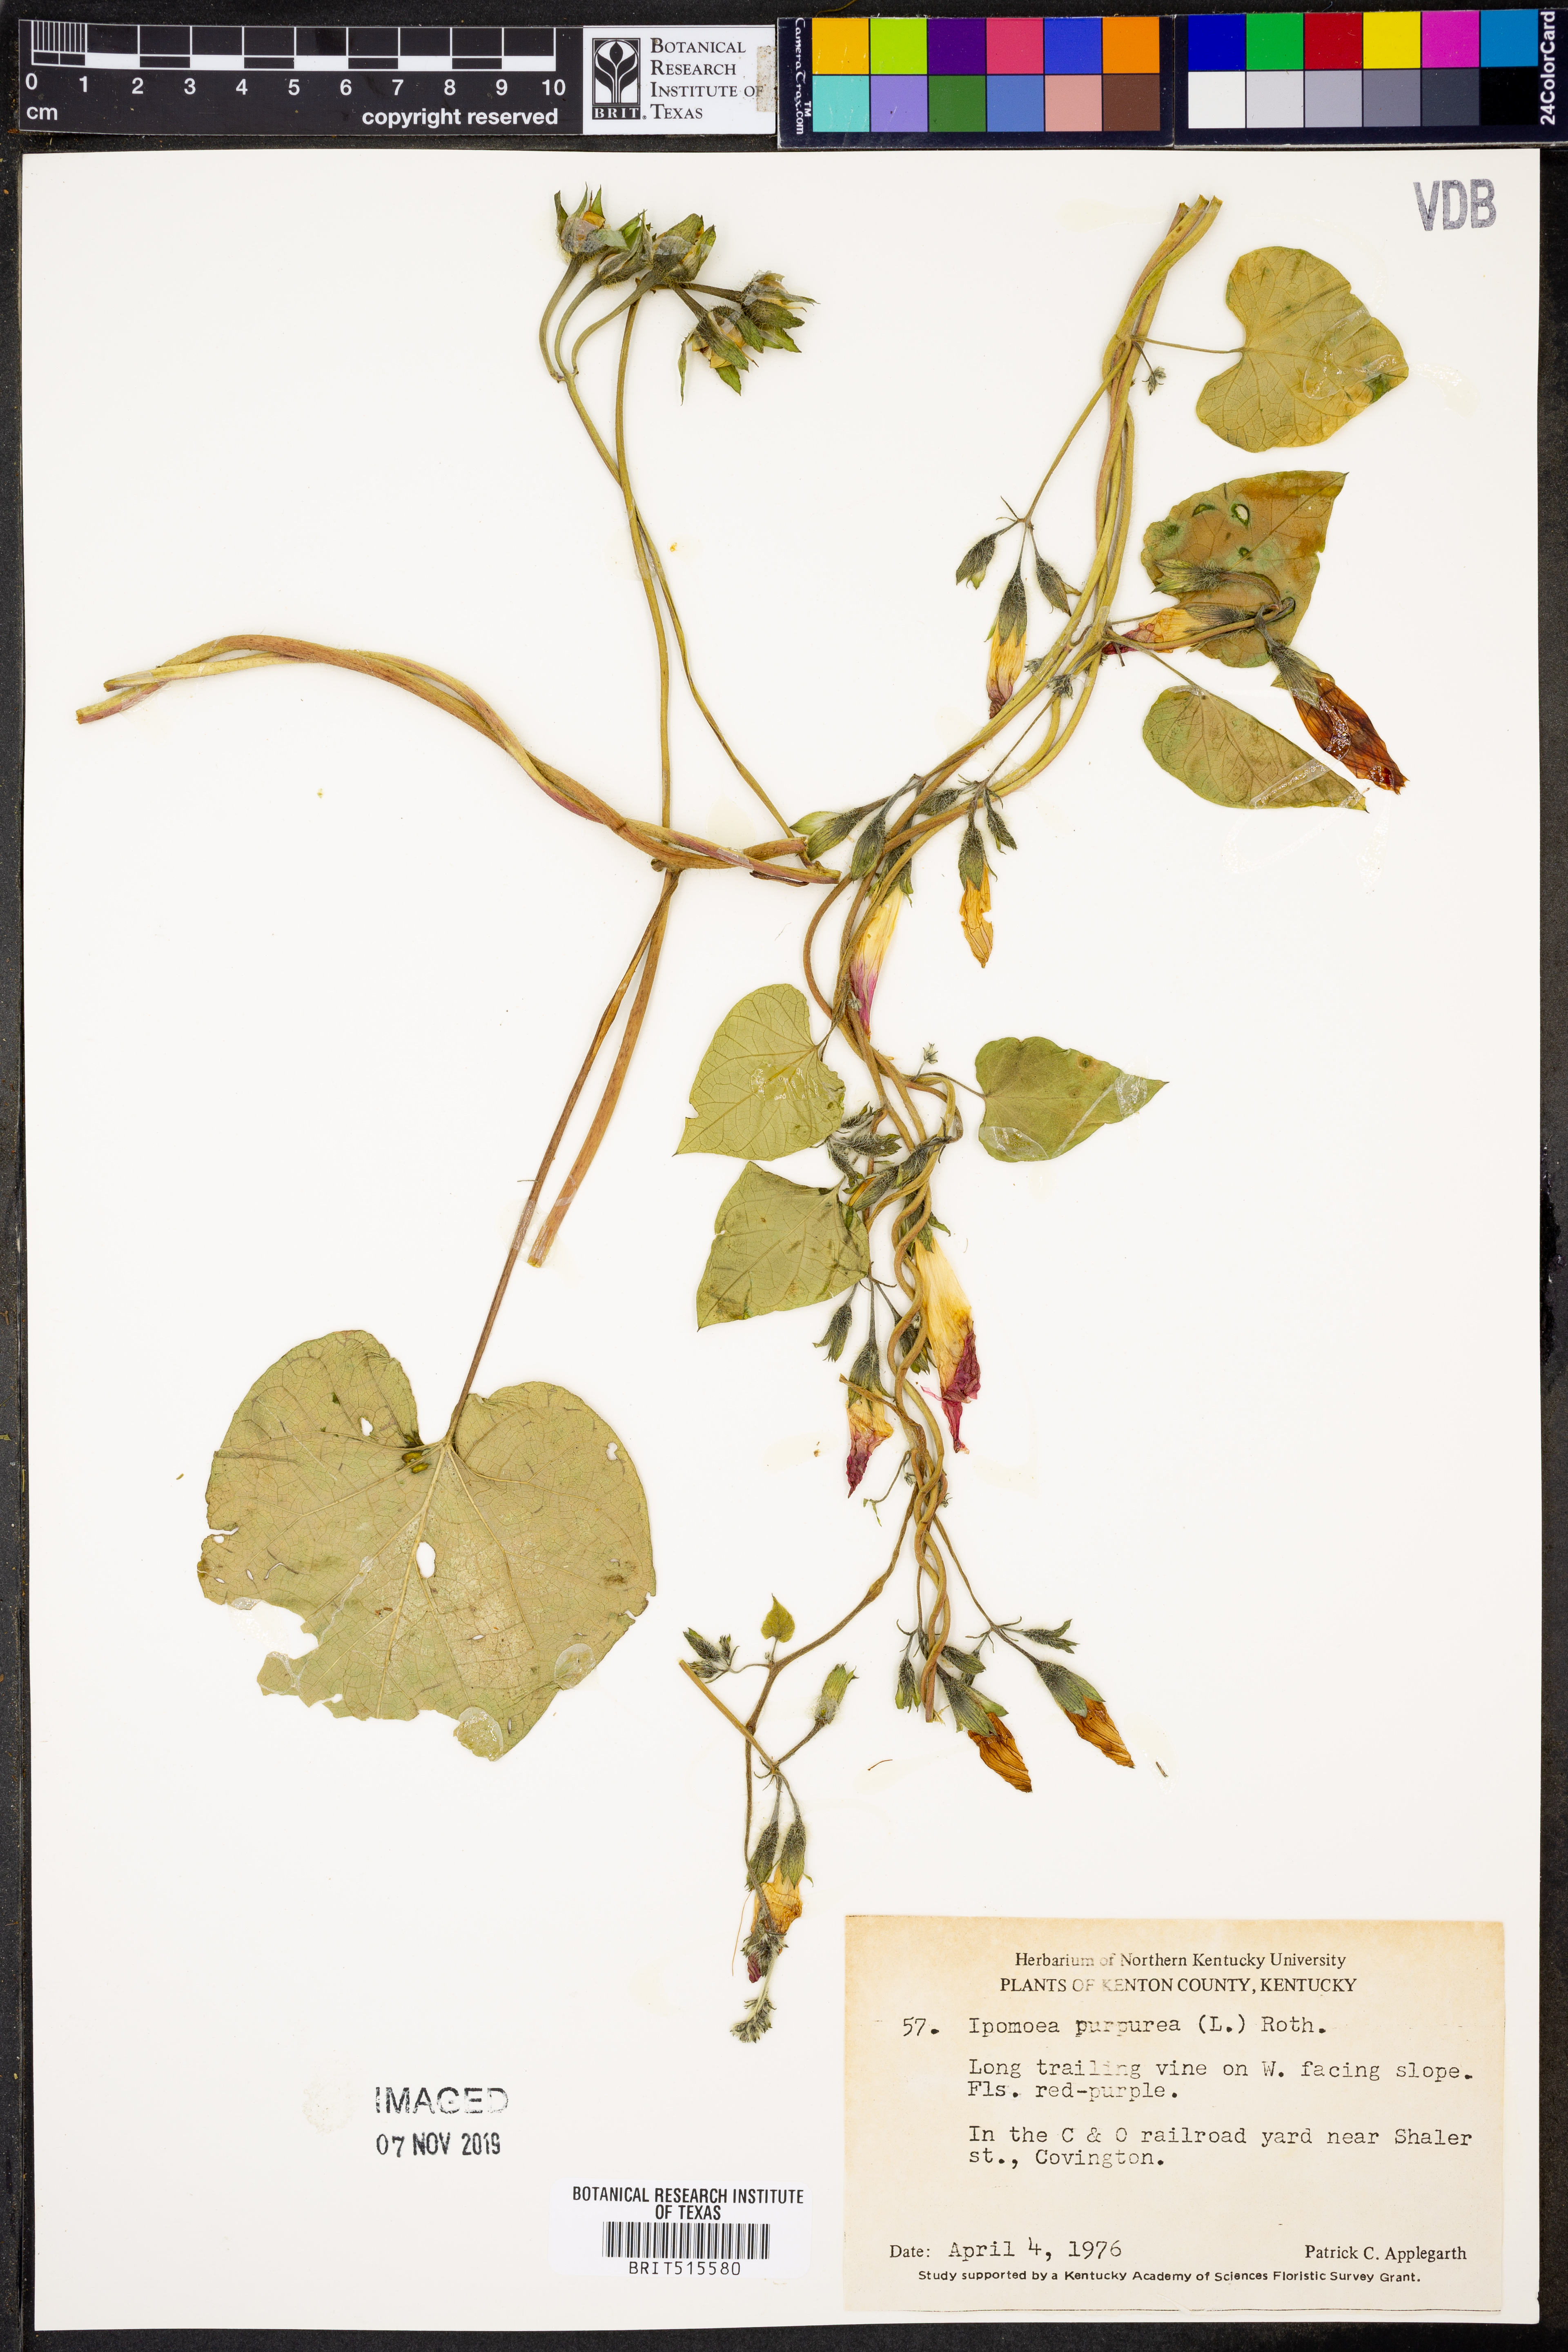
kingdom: Plantae
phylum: Tracheophyta
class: Magnoliopsida
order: Solanales
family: Convolvulaceae
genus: Ipomoea
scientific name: Ipomoea purpurea
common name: Common morning-glory
